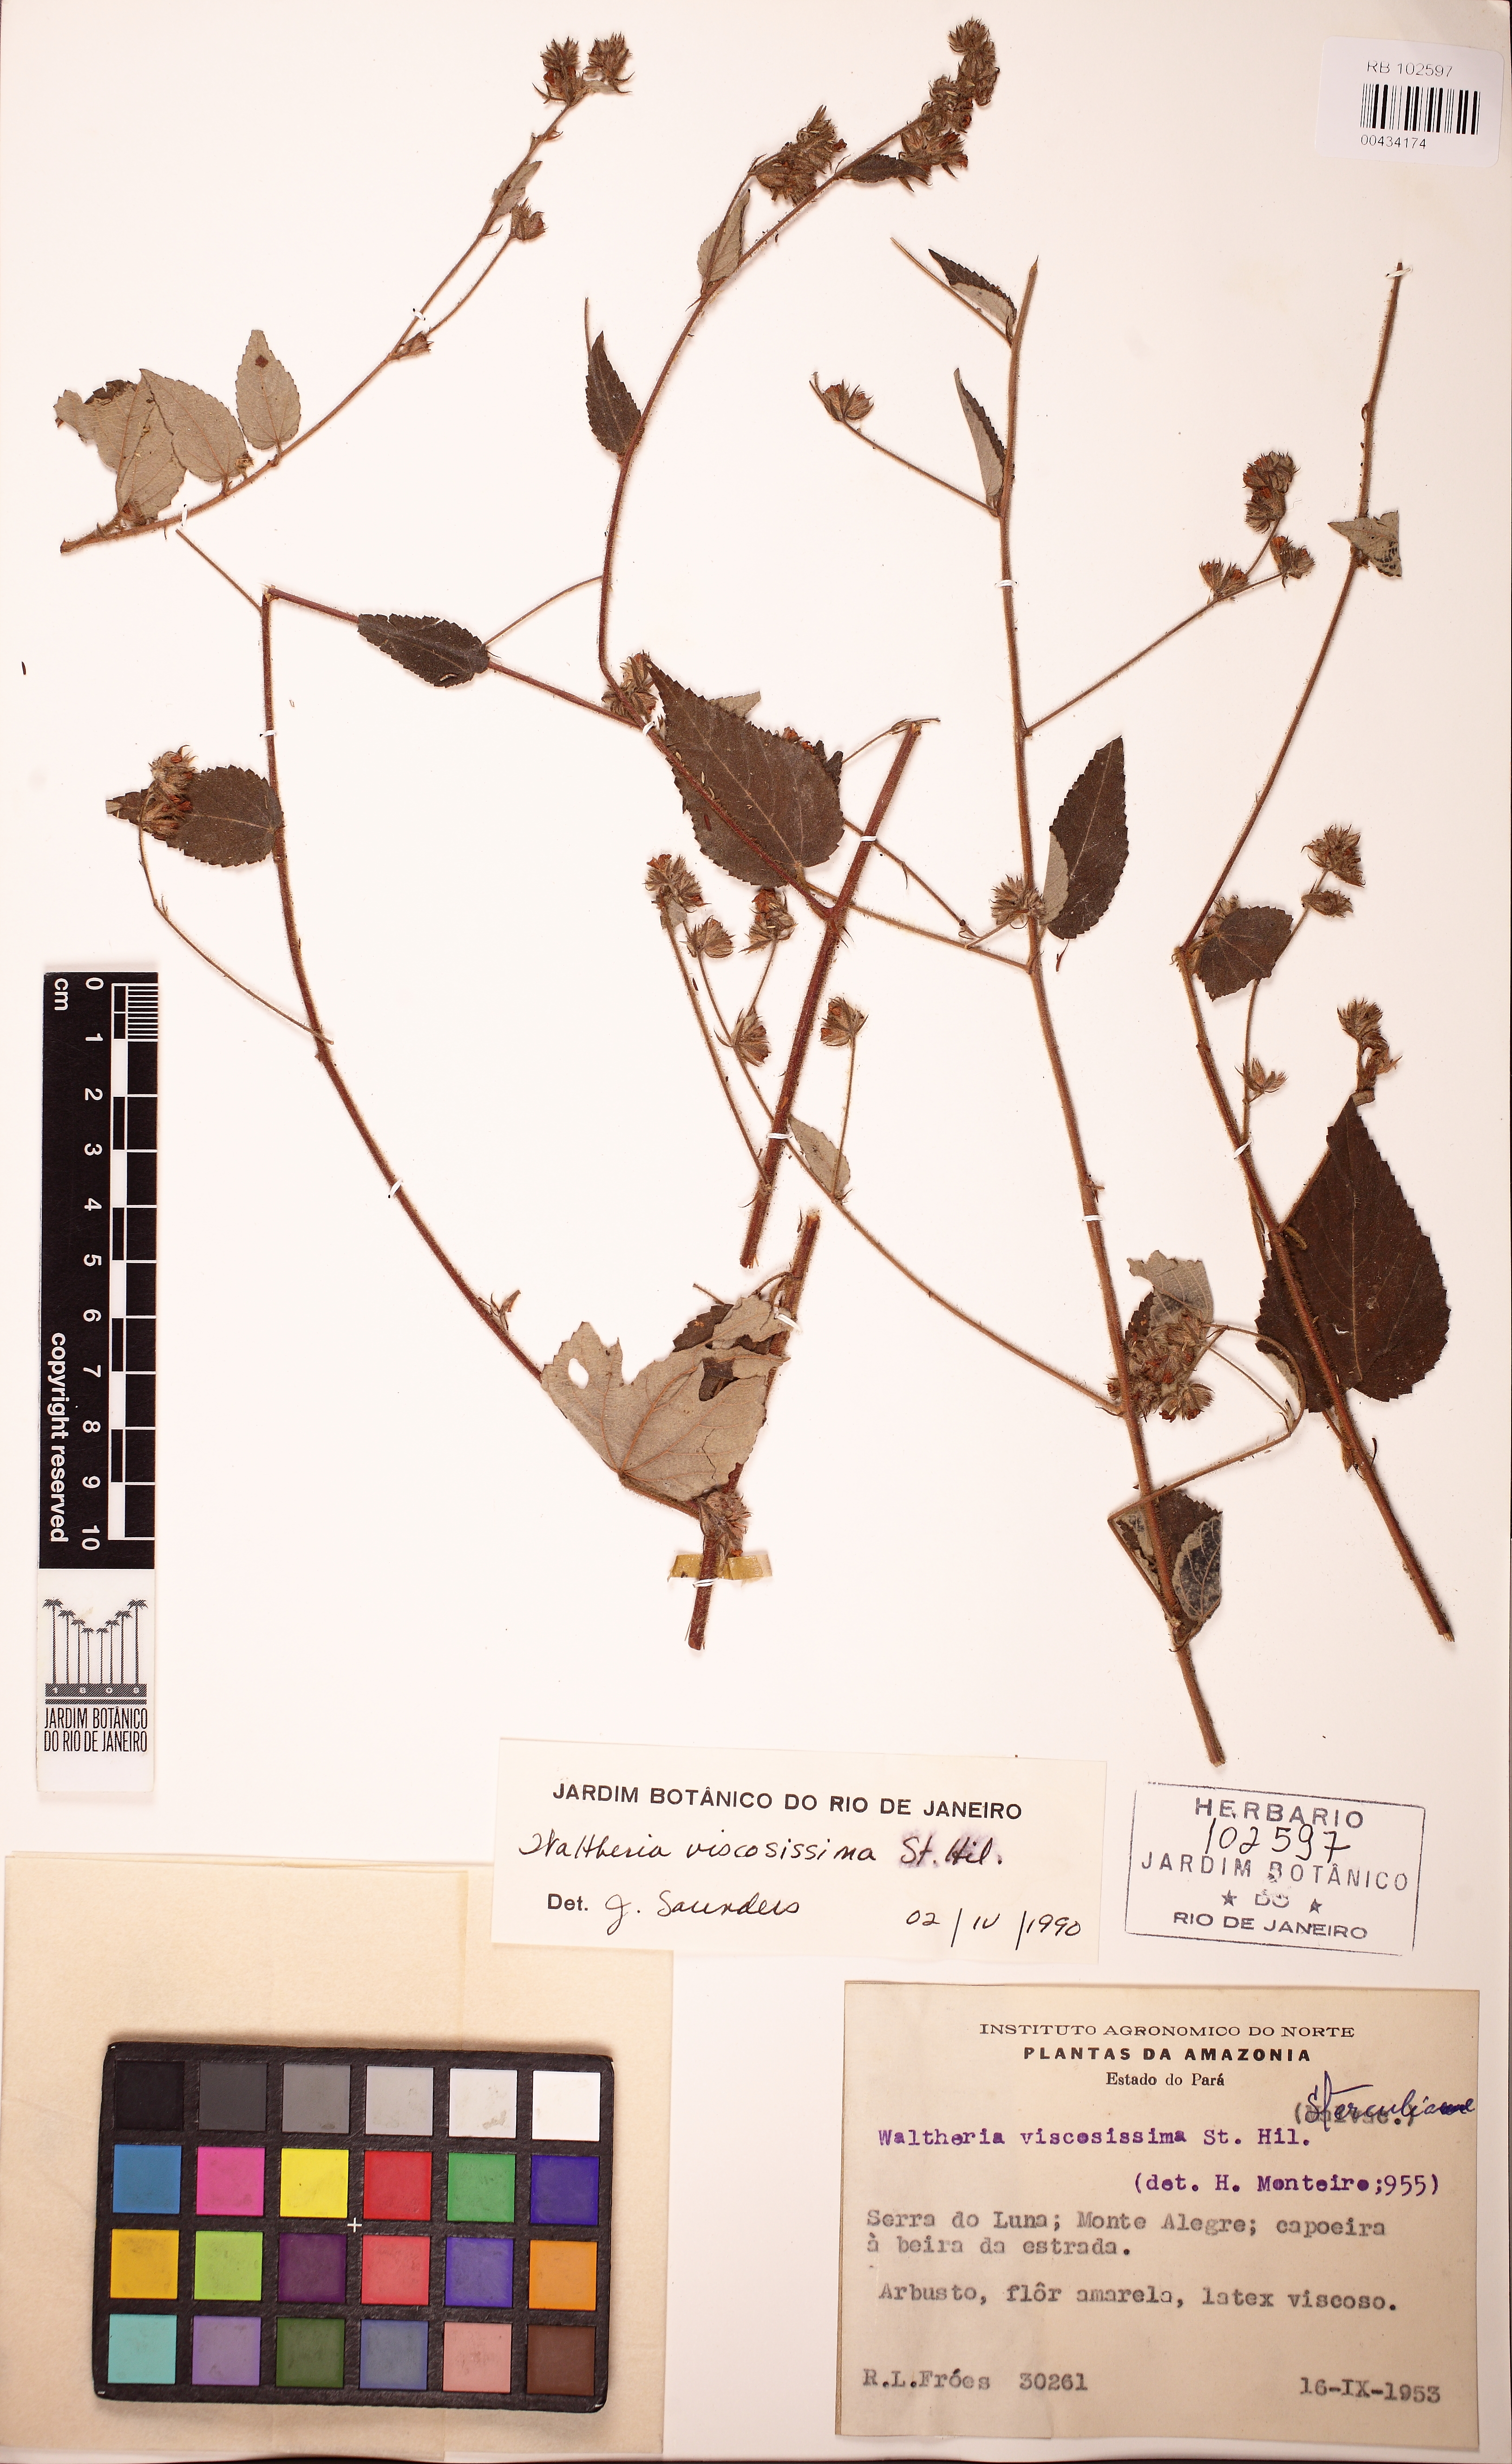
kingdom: Plantae
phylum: Tracheophyta
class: Magnoliopsida
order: Malvales
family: Malvaceae
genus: Waltheria
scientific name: Waltheria viscosissima
